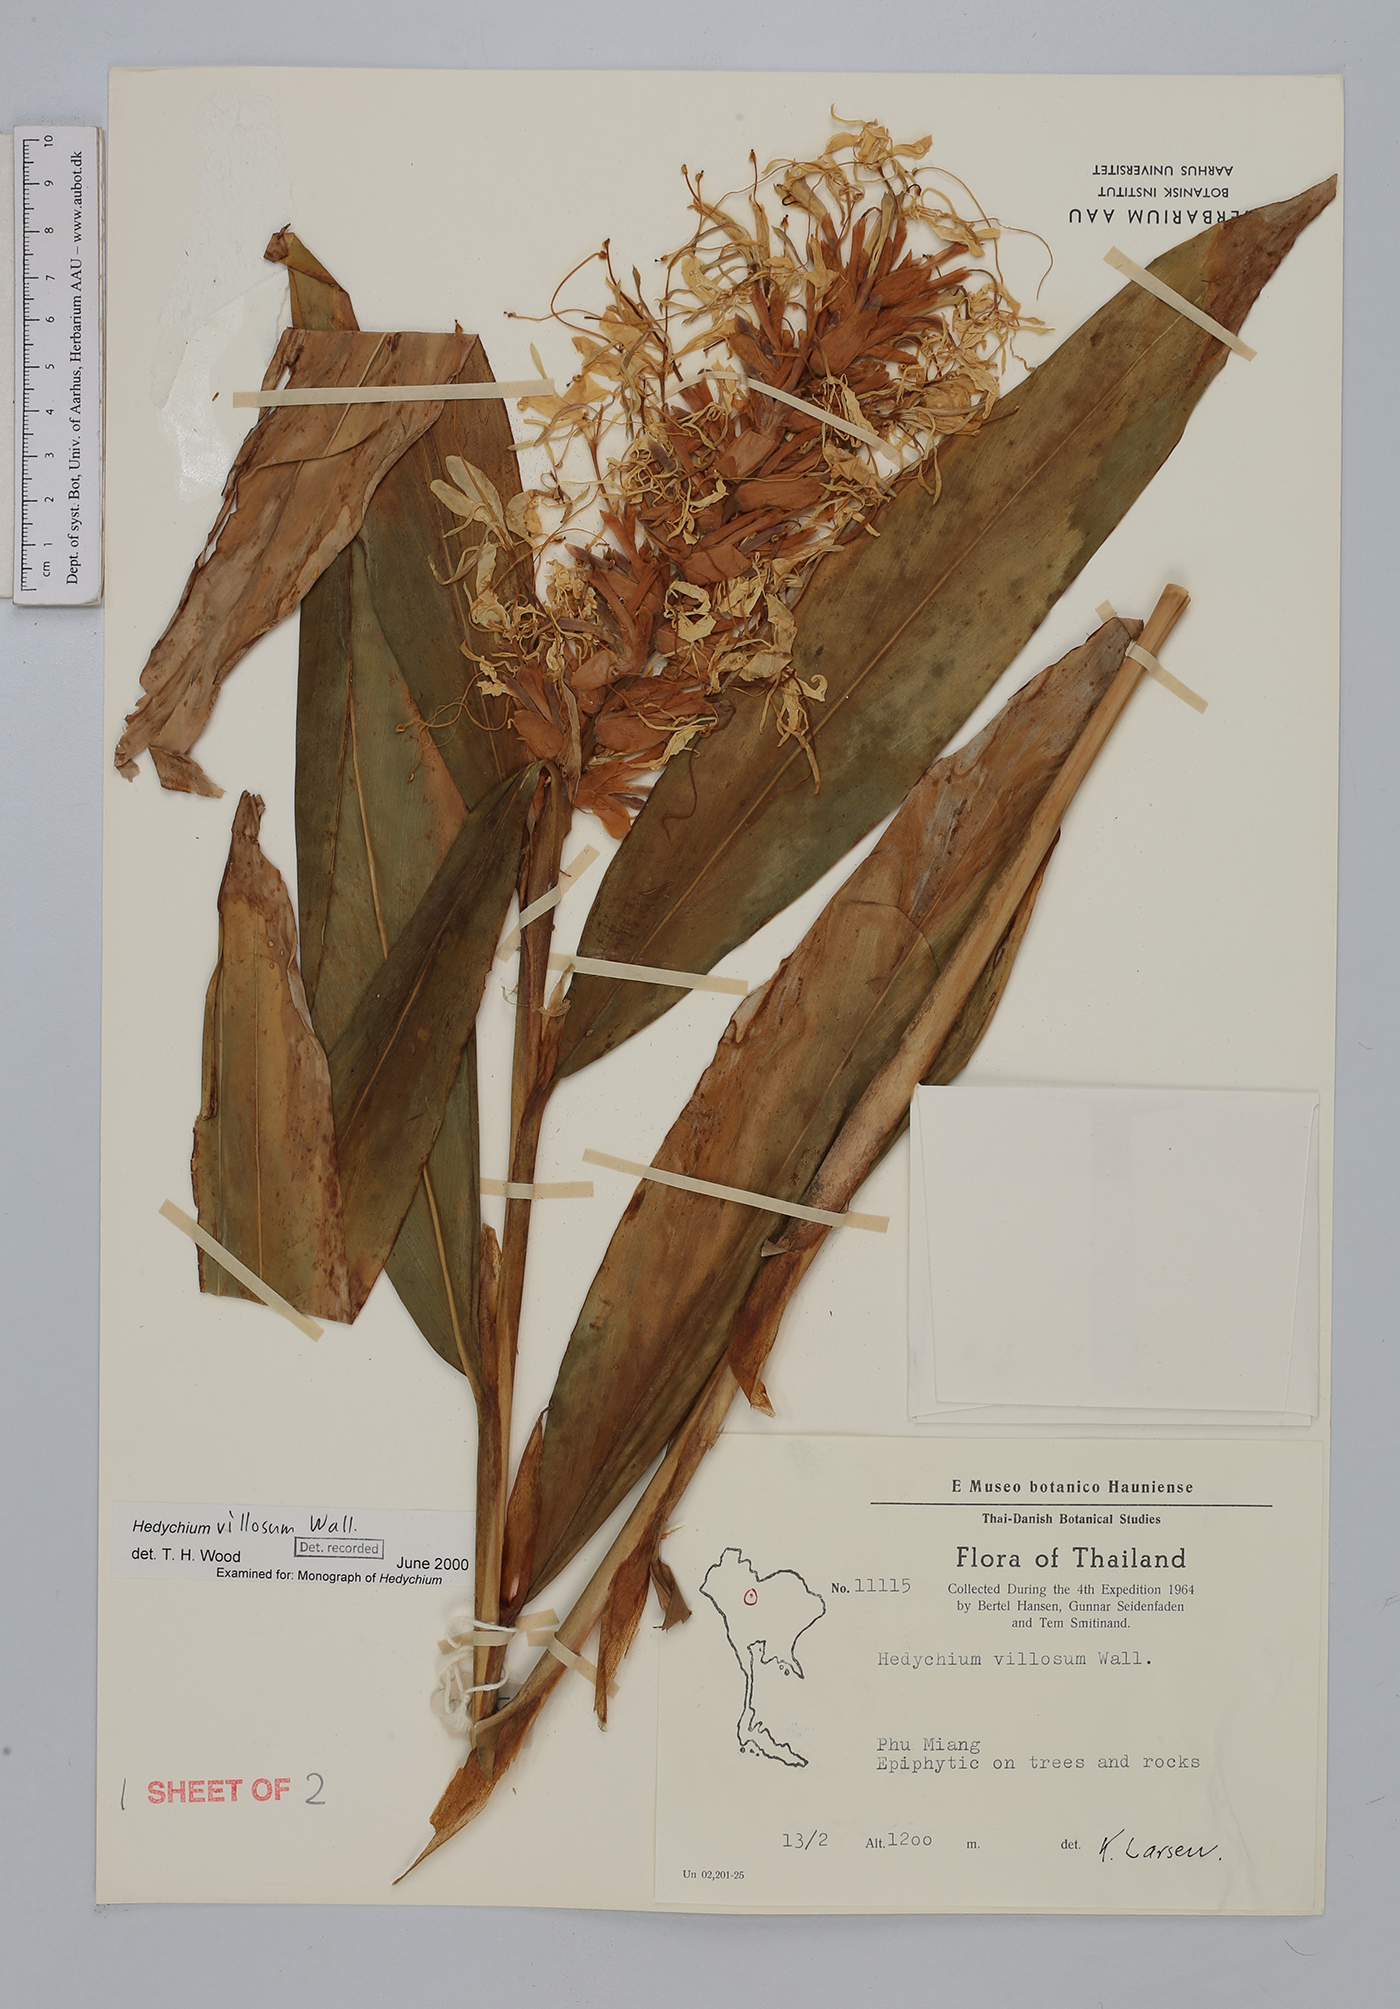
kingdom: Plantae
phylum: Tracheophyta
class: Liliopsida
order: Zingiberales
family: Zingiberaceae
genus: Hedychium
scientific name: Hedychium villosum
